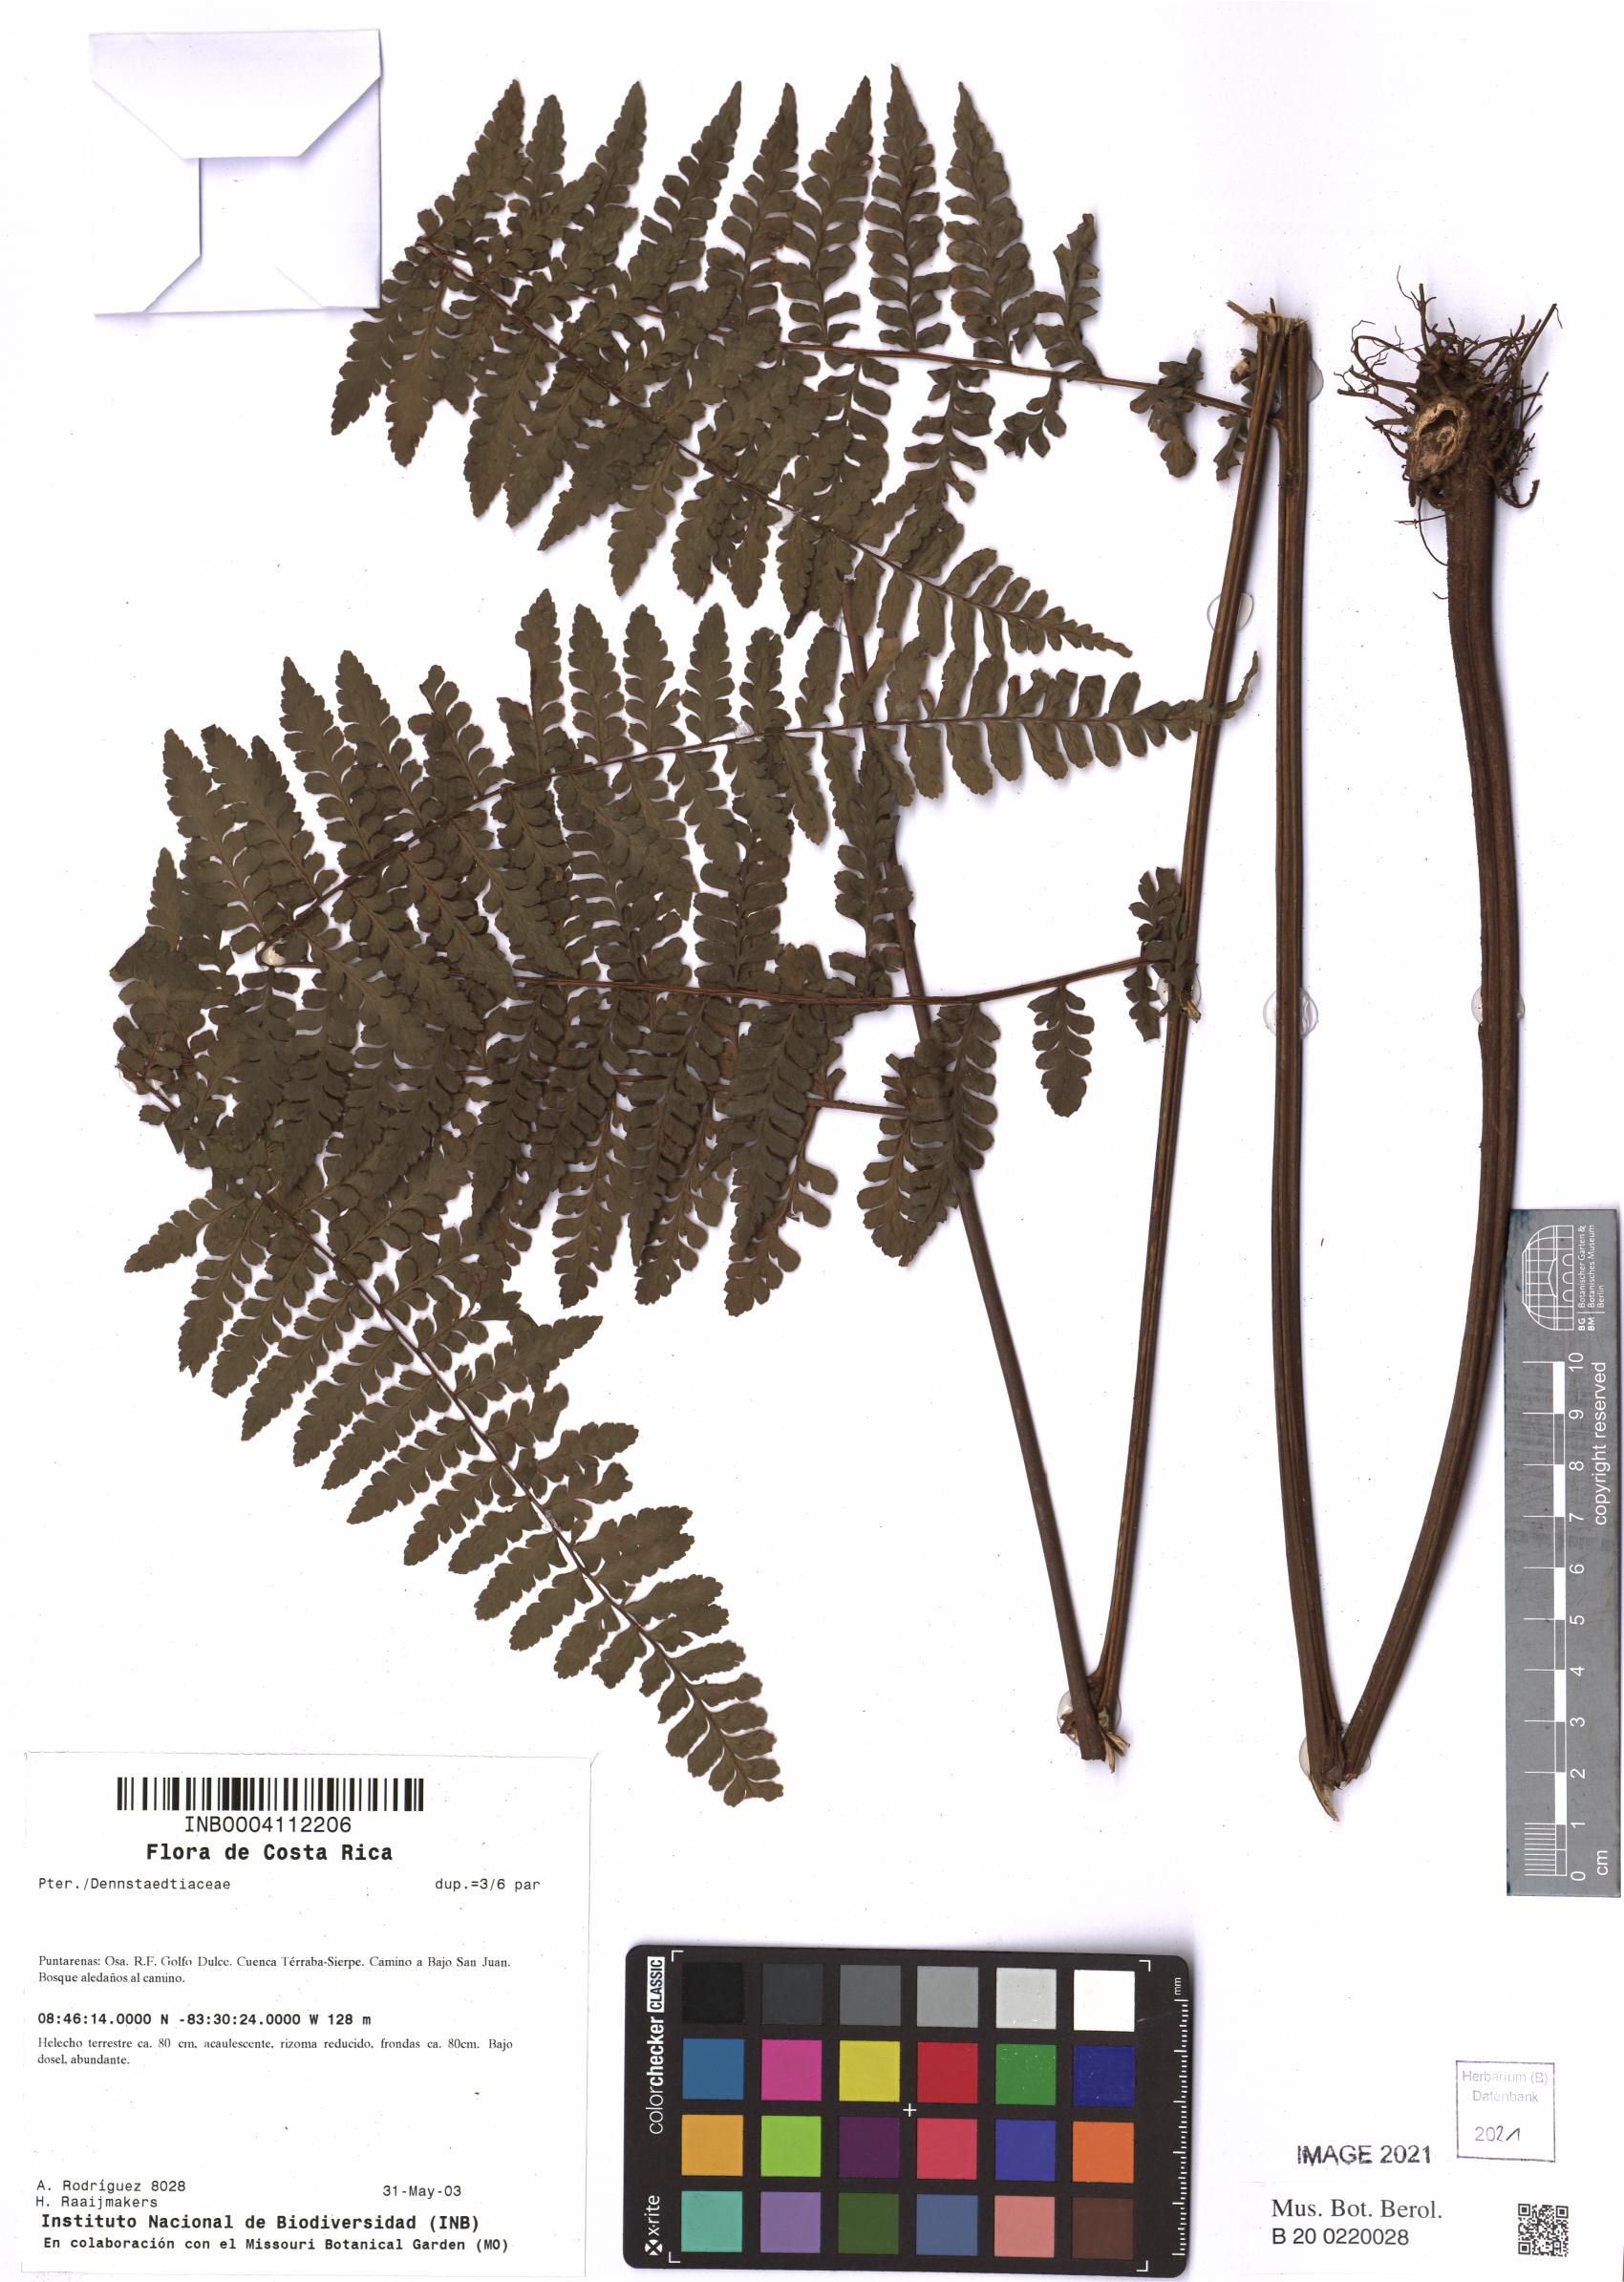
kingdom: Plantae
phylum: Tracheophyta
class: Polypodiopsida
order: Polypodiales
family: Dennstaedtiaceae
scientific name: Dennstaedtiaceae
